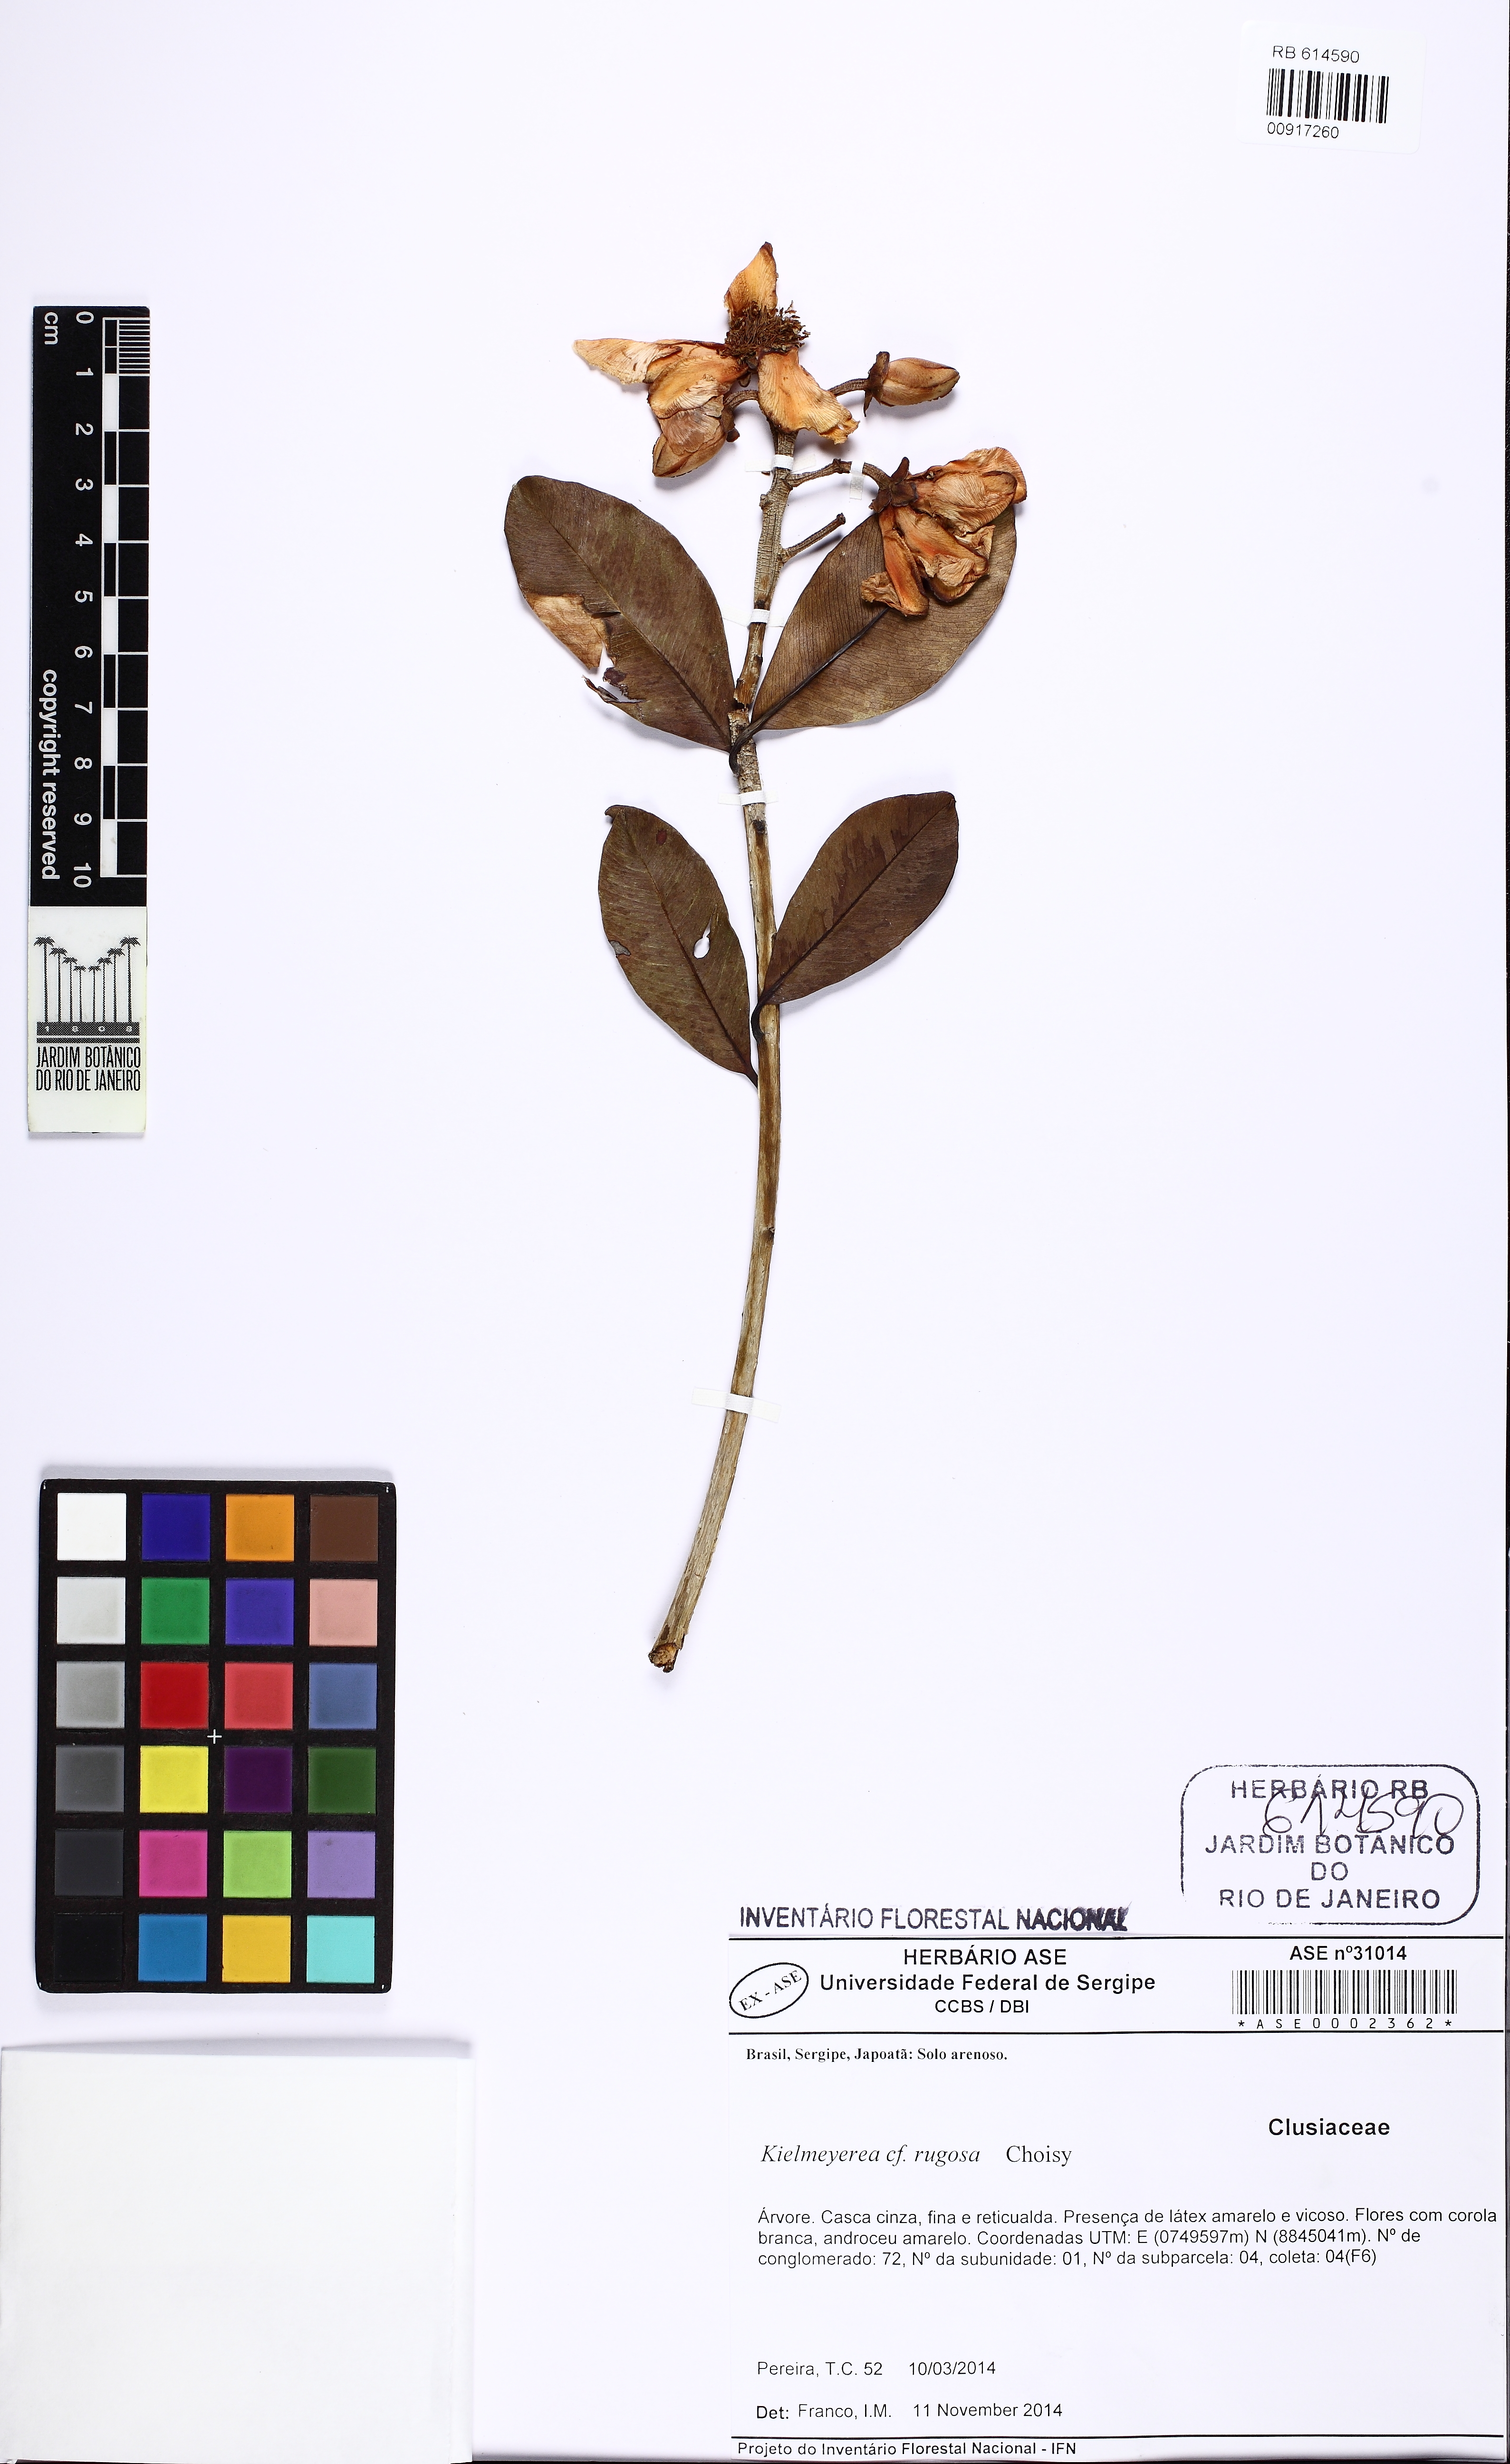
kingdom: Plantae
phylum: Tracheophyta
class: Magnoliopsida
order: Malpighiales
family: Calophyllaceae
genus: Kielmeyera
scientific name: Kielmeyera rubriflora
